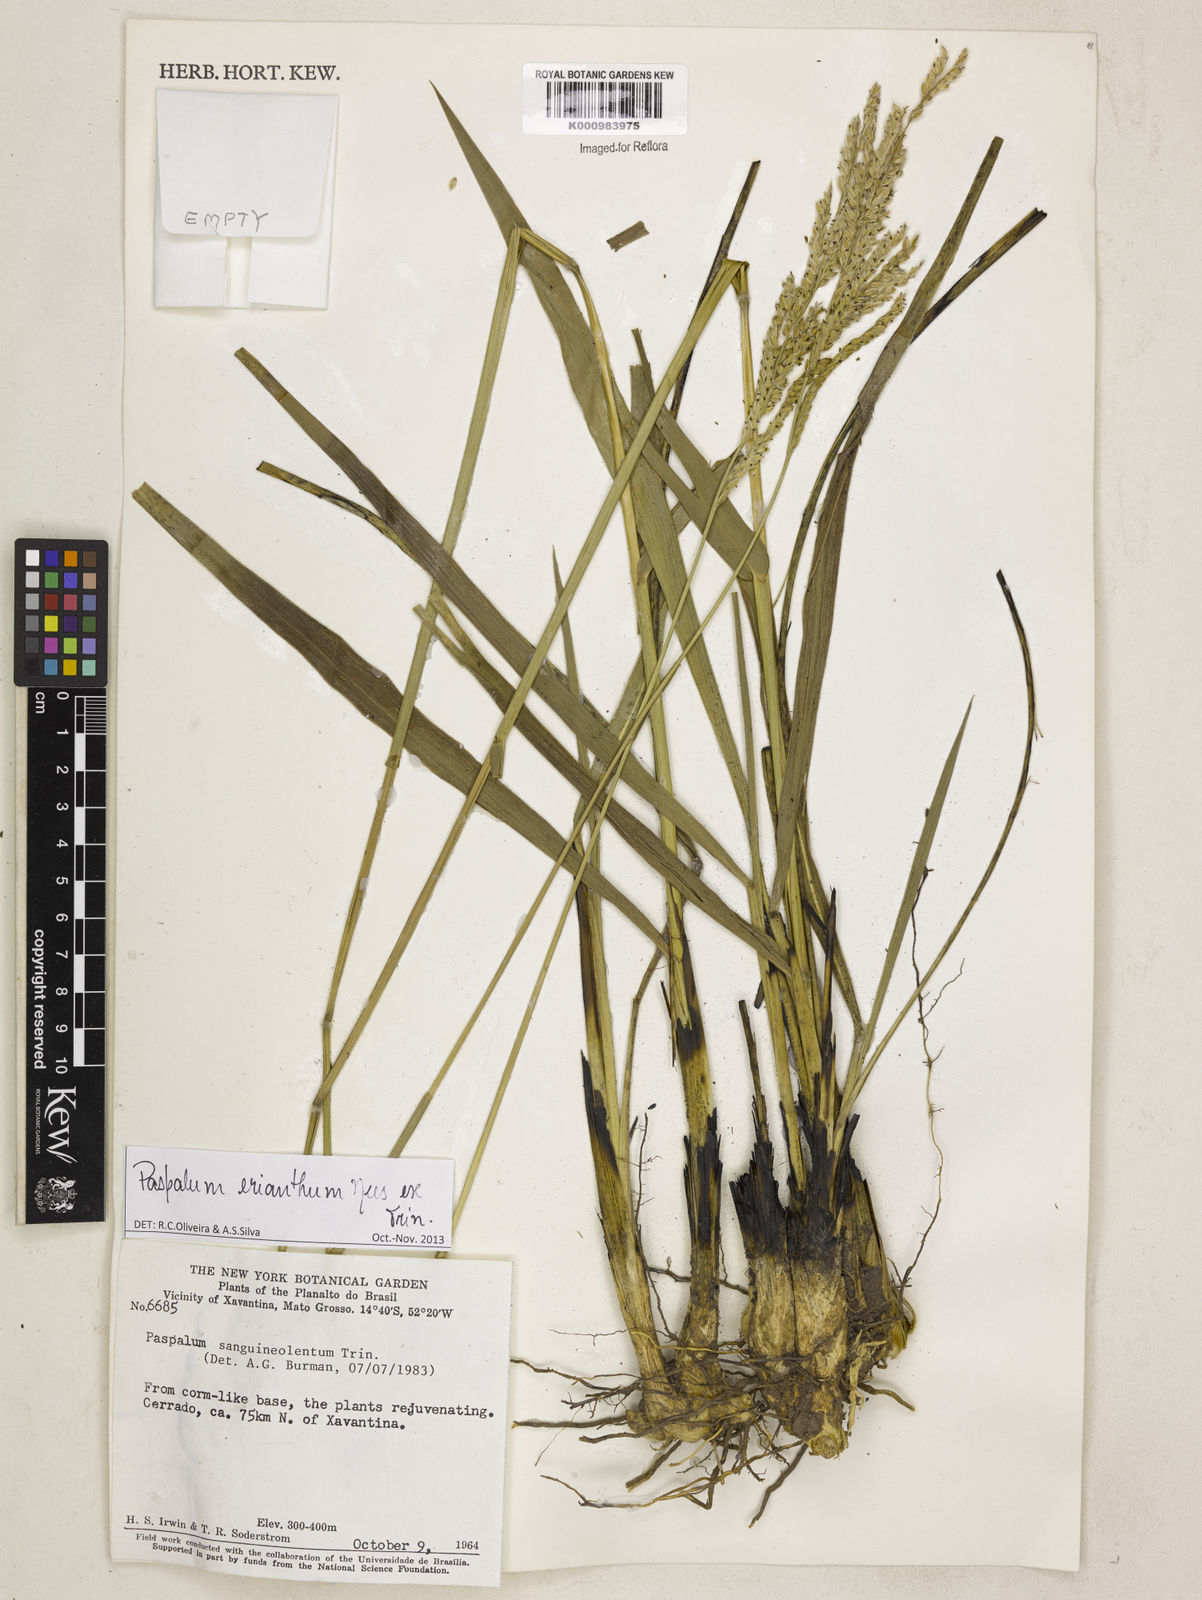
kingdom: Plantae
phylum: Tracheophyta
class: Liliopsida
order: Poales
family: Poaceae
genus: Paspalum
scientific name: Paspalum erianthum
